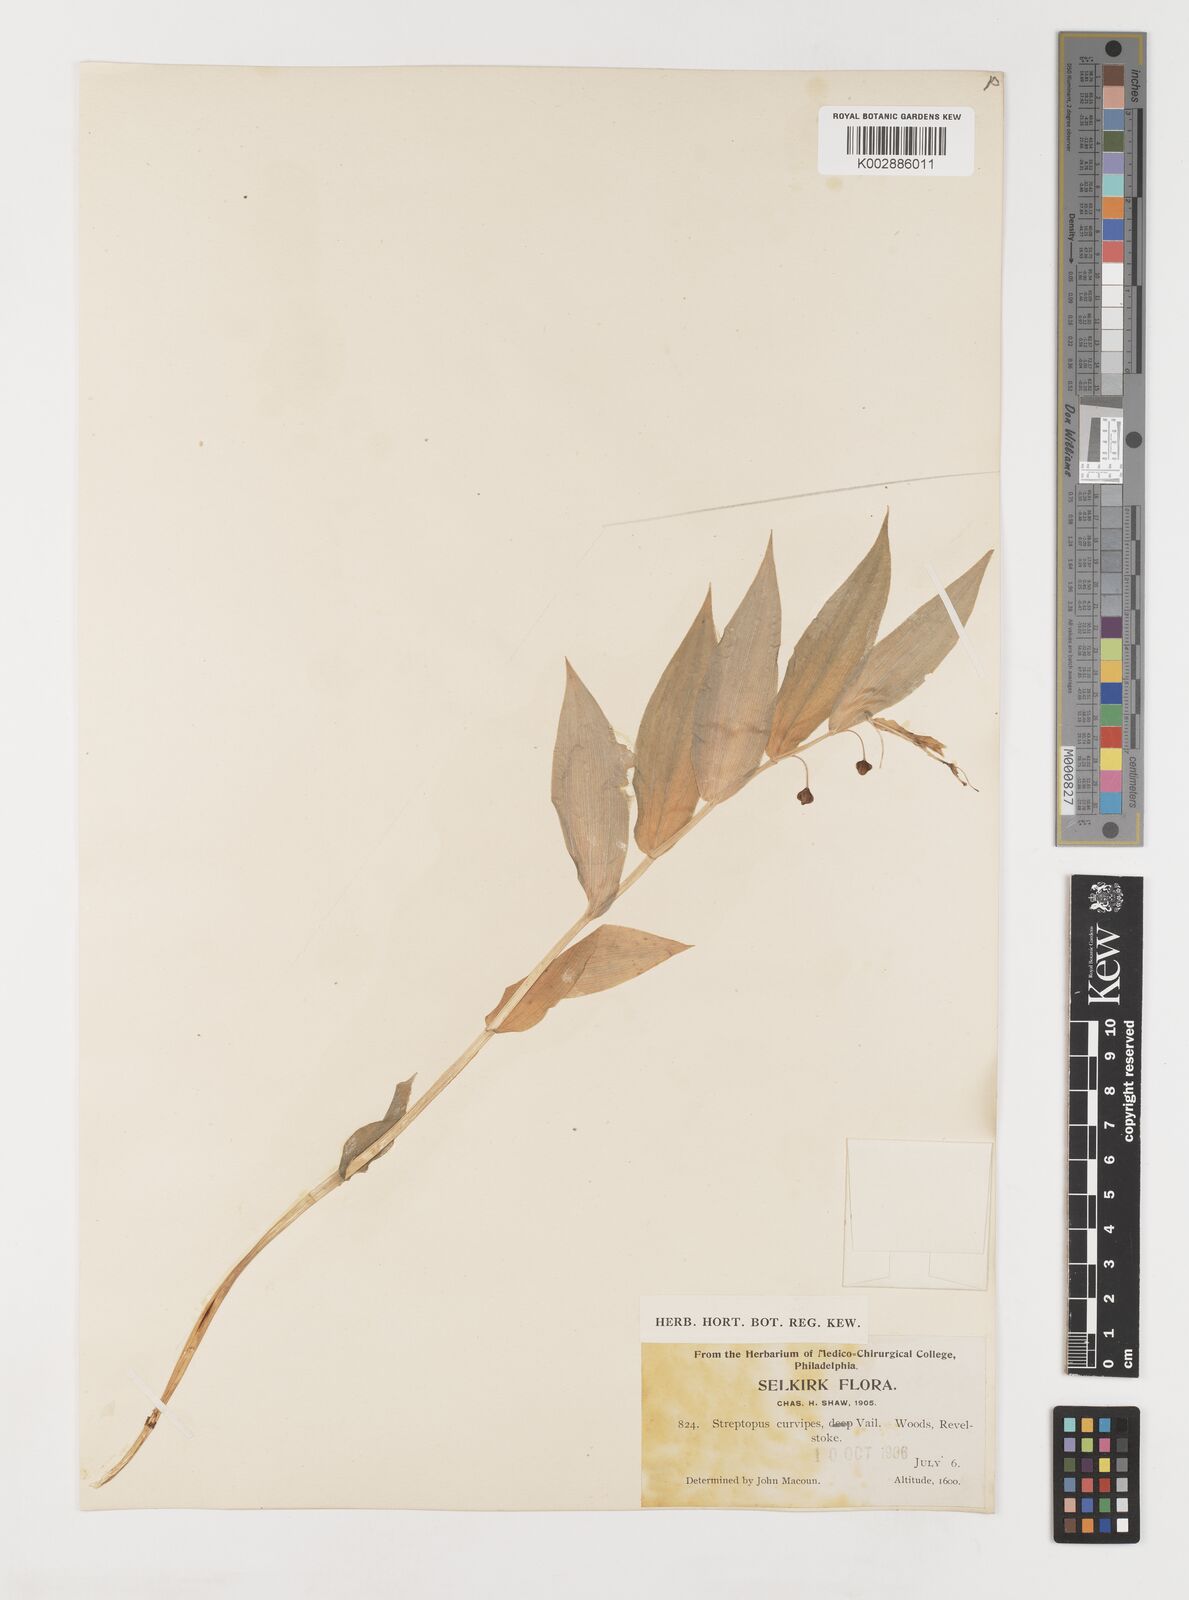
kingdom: Plantae
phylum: Tracheophyta
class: Liliopsida
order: Liliales
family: Liliaceae
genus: Streptopus
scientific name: Streptopus lanceolatus
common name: Rose mandarin
